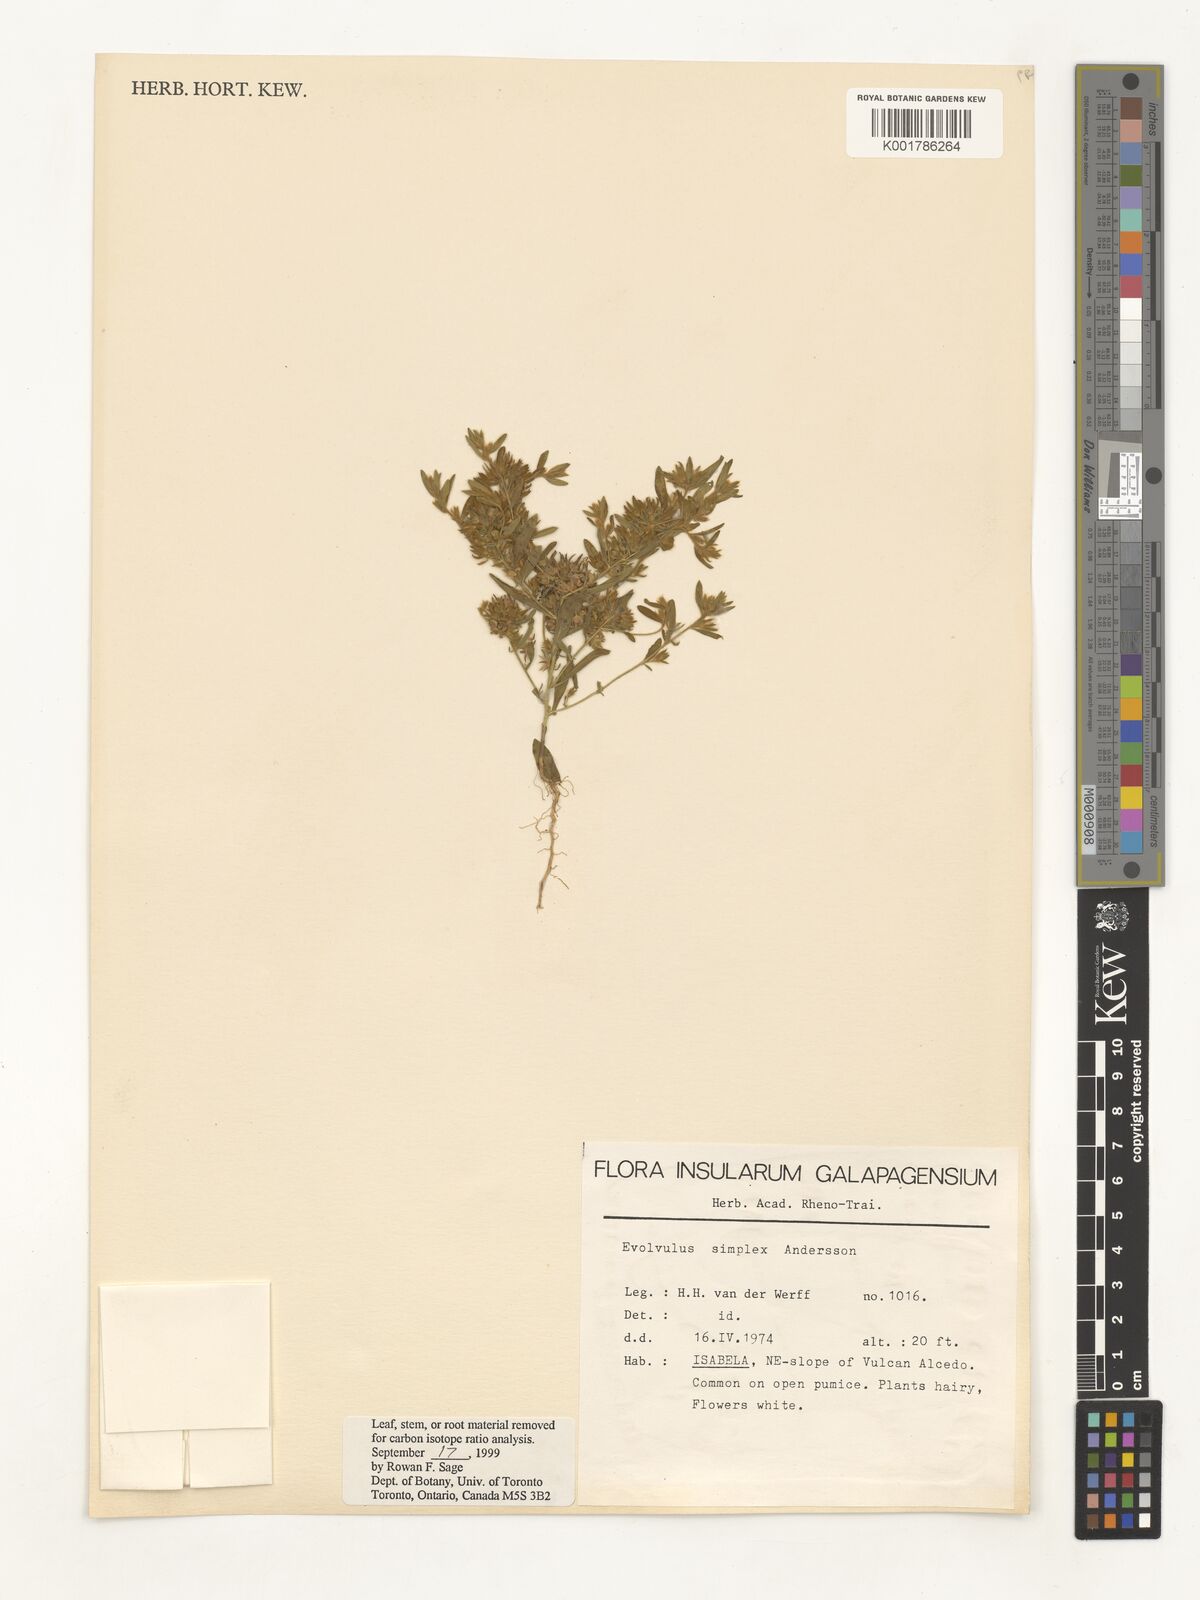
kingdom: Plantae
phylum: Tracheophyta
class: Magnoliopsida
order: Solanales
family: Convolvulaceae
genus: Evolvulus
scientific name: Evolvulus simplex
